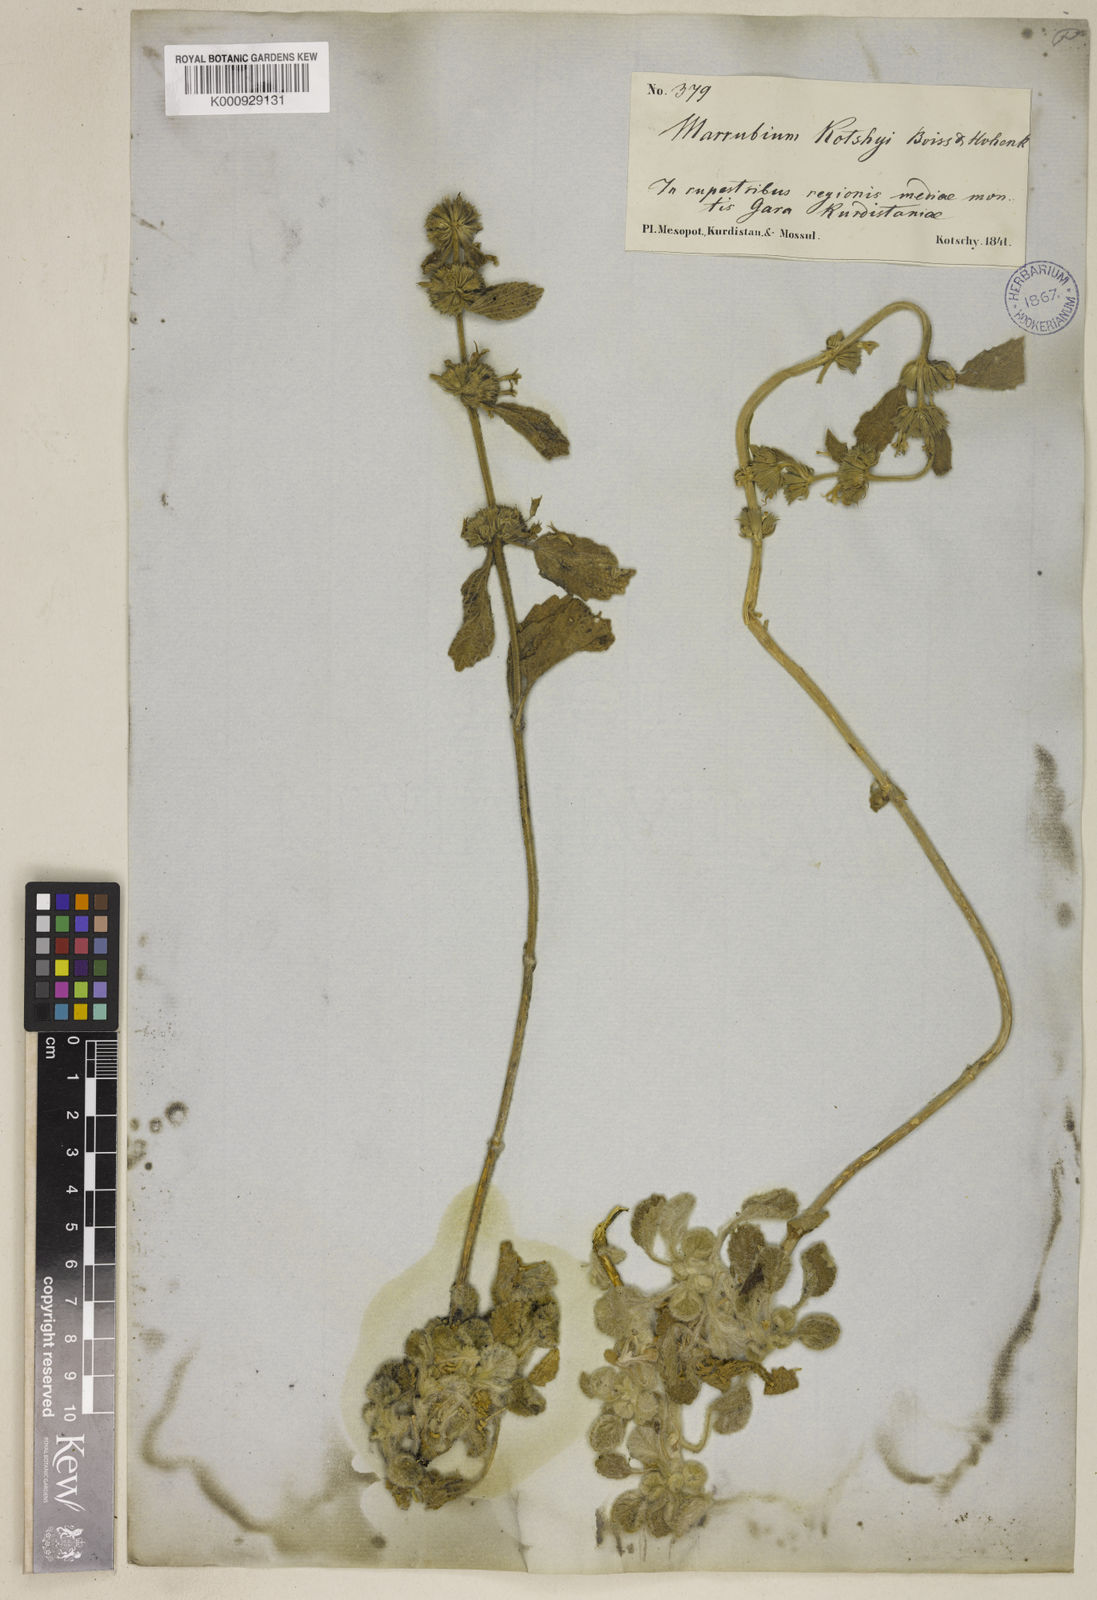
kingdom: Plantae
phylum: Tracheophyta
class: Magnoliopsida
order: Lamiales
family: Lamiaceae
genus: Marrubium
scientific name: Marrubium astracanicum
